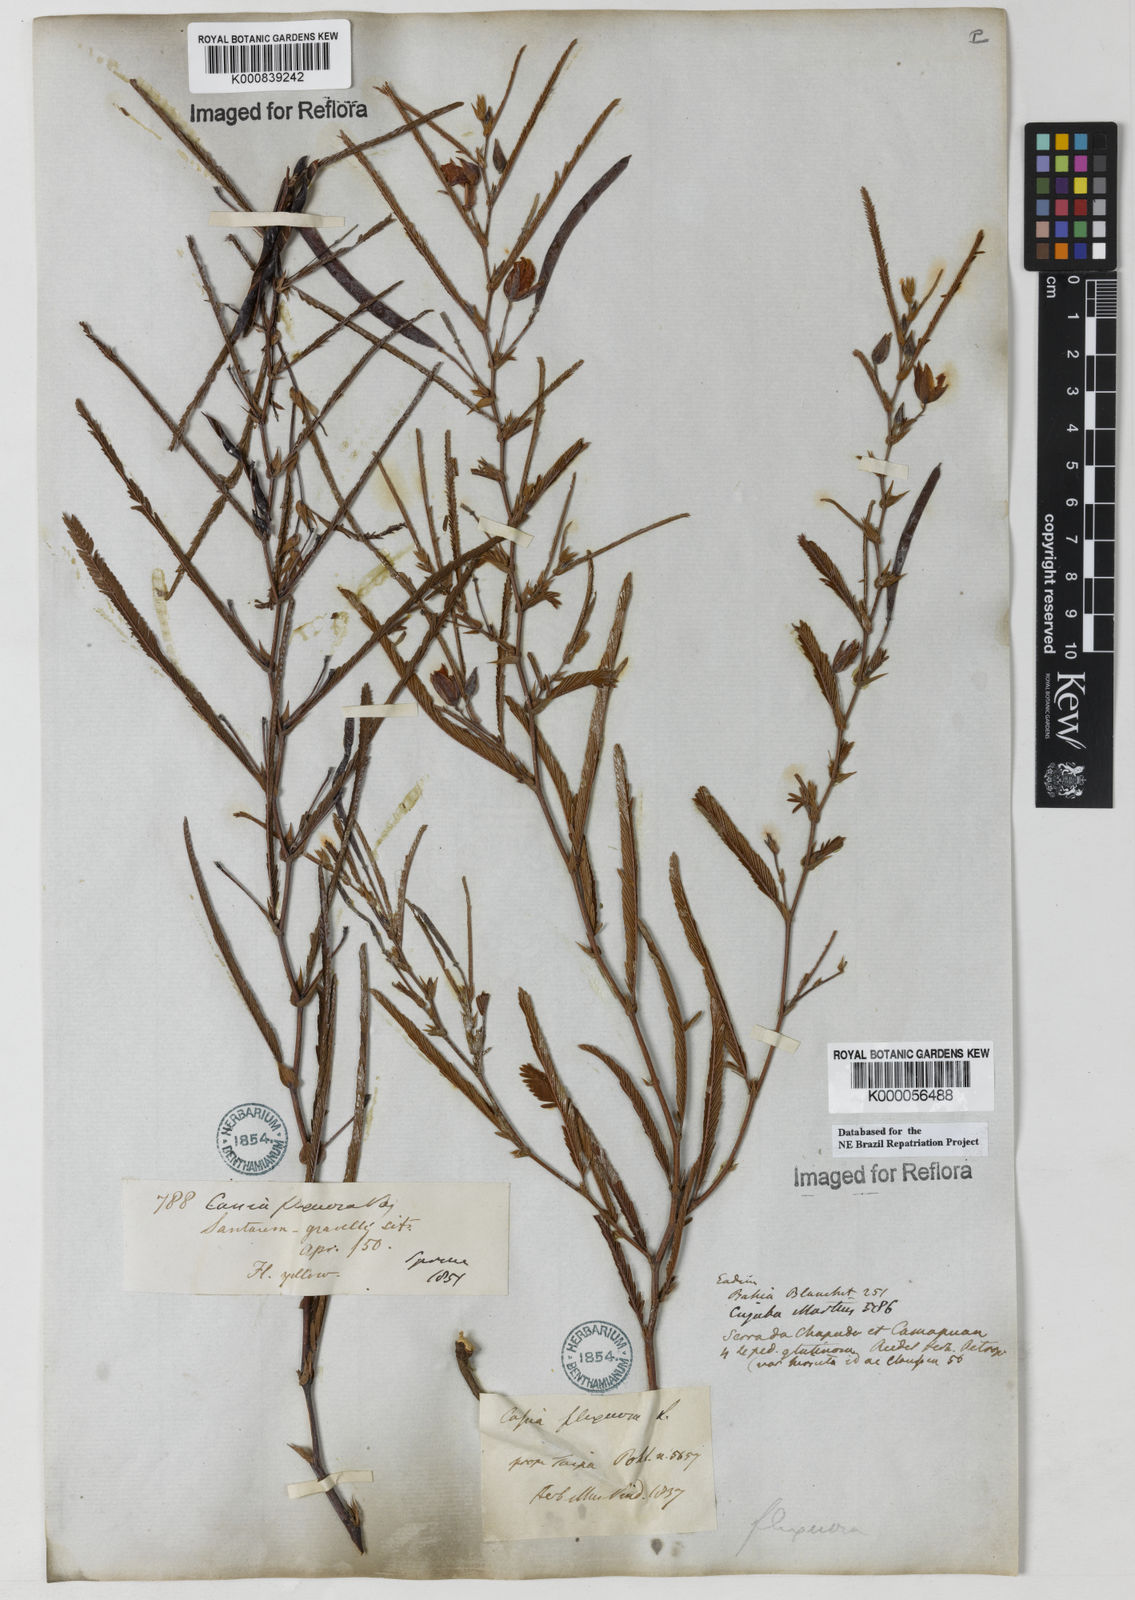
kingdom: Plantae
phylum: Tracheophyta
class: Magnoliopsida
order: Fabales
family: Fabaceae
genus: Chamaecrista
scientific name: Chamaecrista flexuosa
